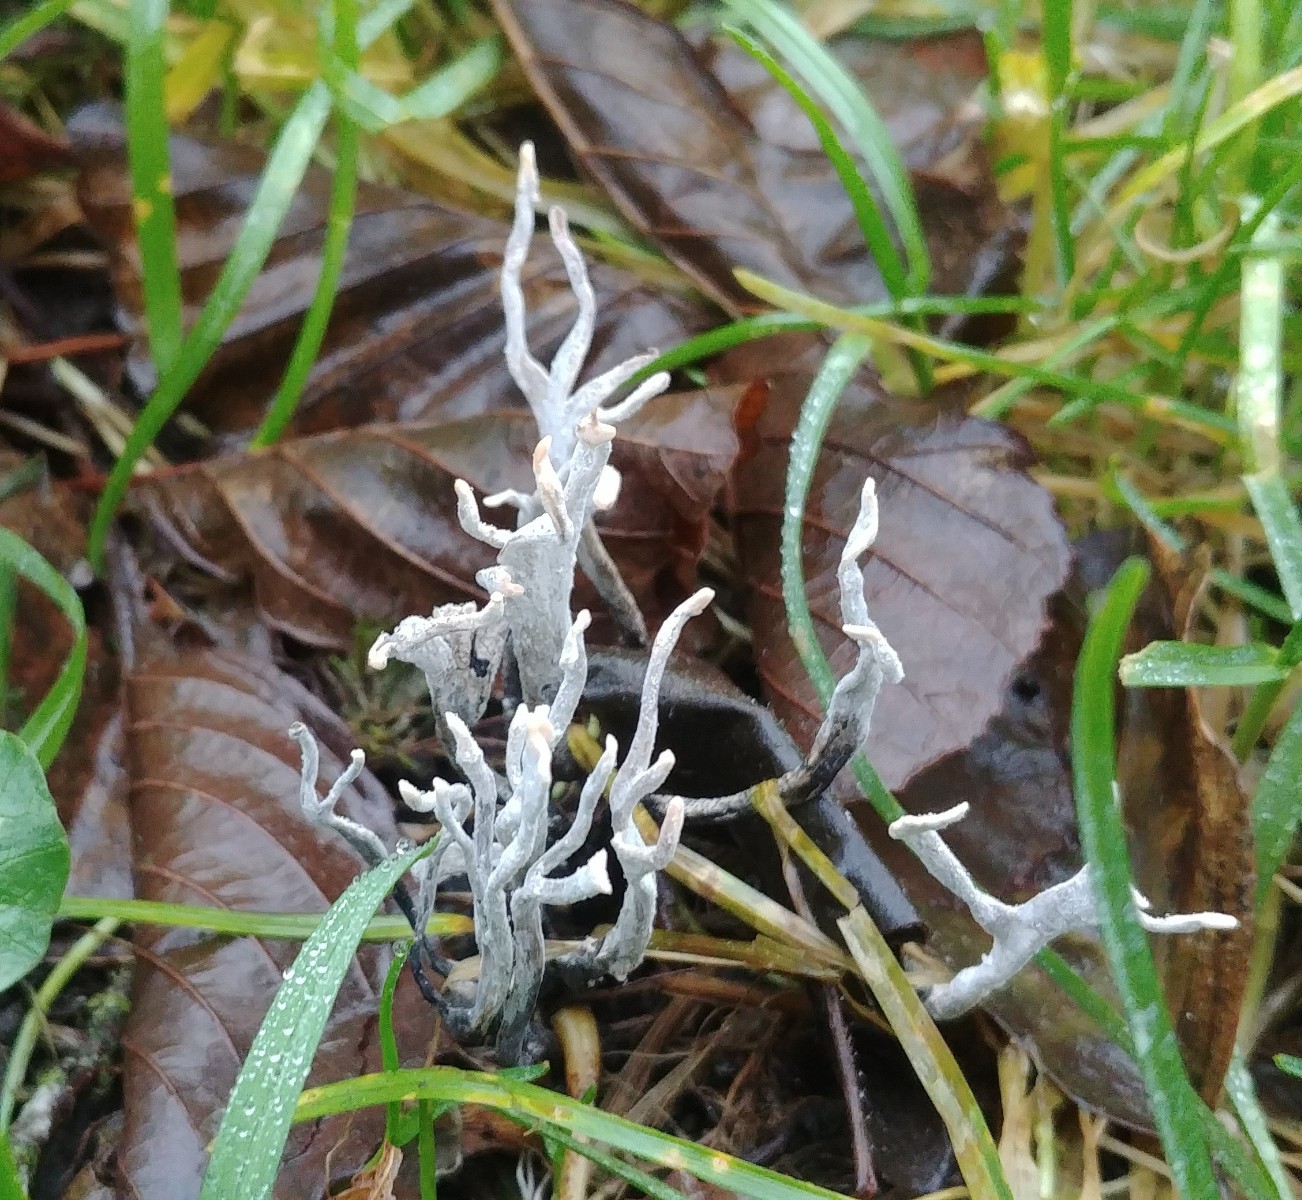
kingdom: Fungi
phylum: Ascomycota
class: Sordariomycetes
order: Xylariales
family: Xylariaceae
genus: Xylaria
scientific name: Xylaria hypoxylon
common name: grenet stødsvamp
